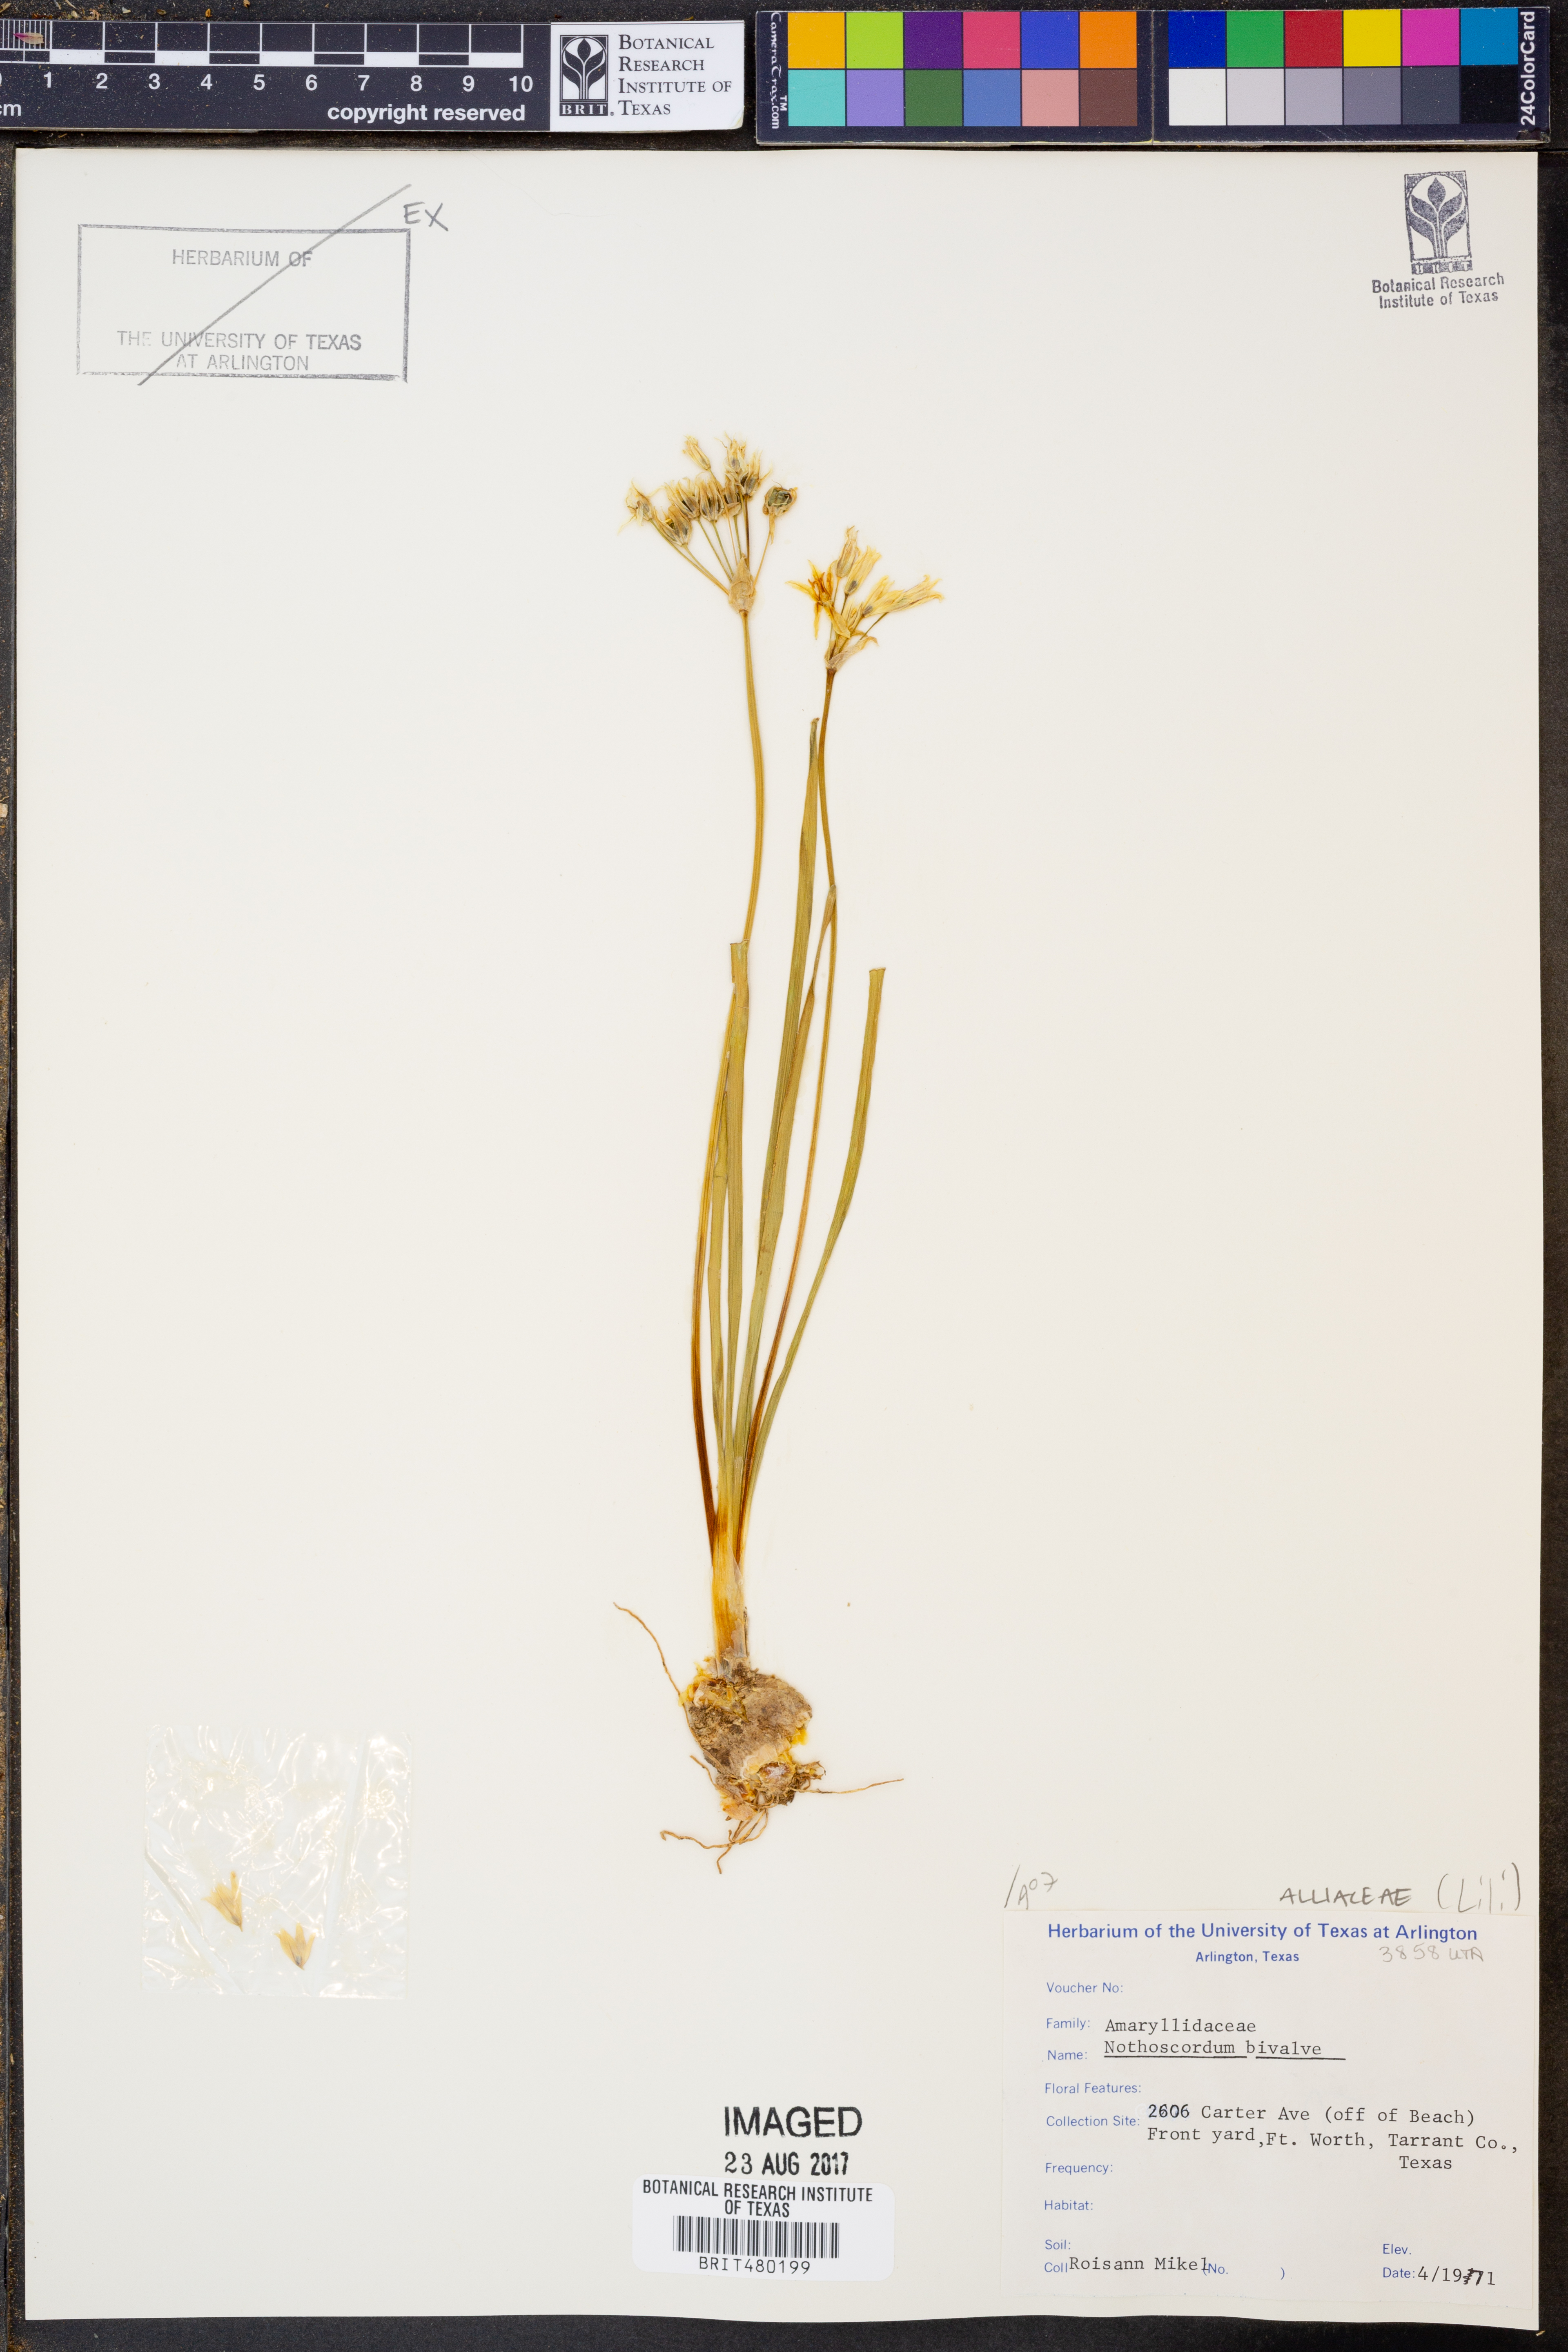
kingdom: Plantae
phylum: Tracheophyta
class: Liliopsida
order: Asparagales
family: Amaryllidaceae
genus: Nothoscordum
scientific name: Nothoscordum bivalve
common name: Crow-poison
